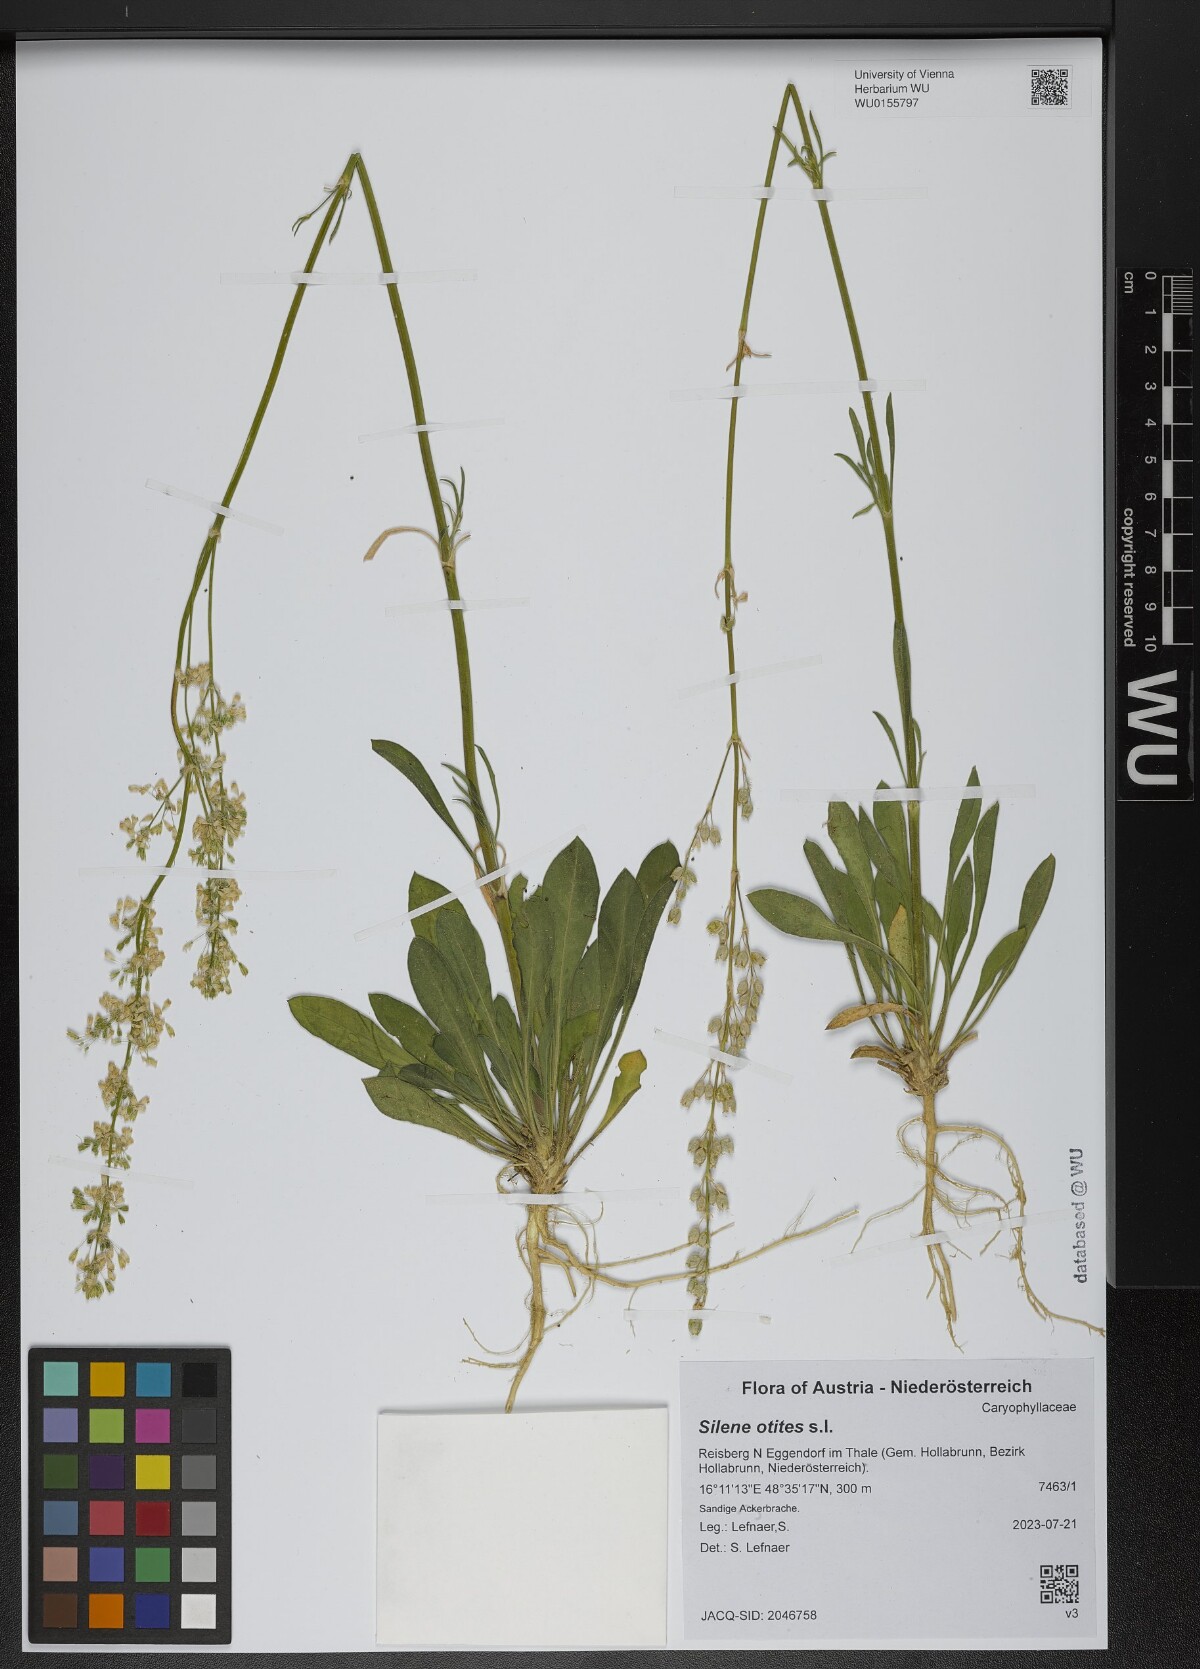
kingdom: Plantae
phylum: Tracheophyta
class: Magnoliopsida
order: Caryophyllales
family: Caryophyllaceae
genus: Silene
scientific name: Silene otites
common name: Spanish catchfly
